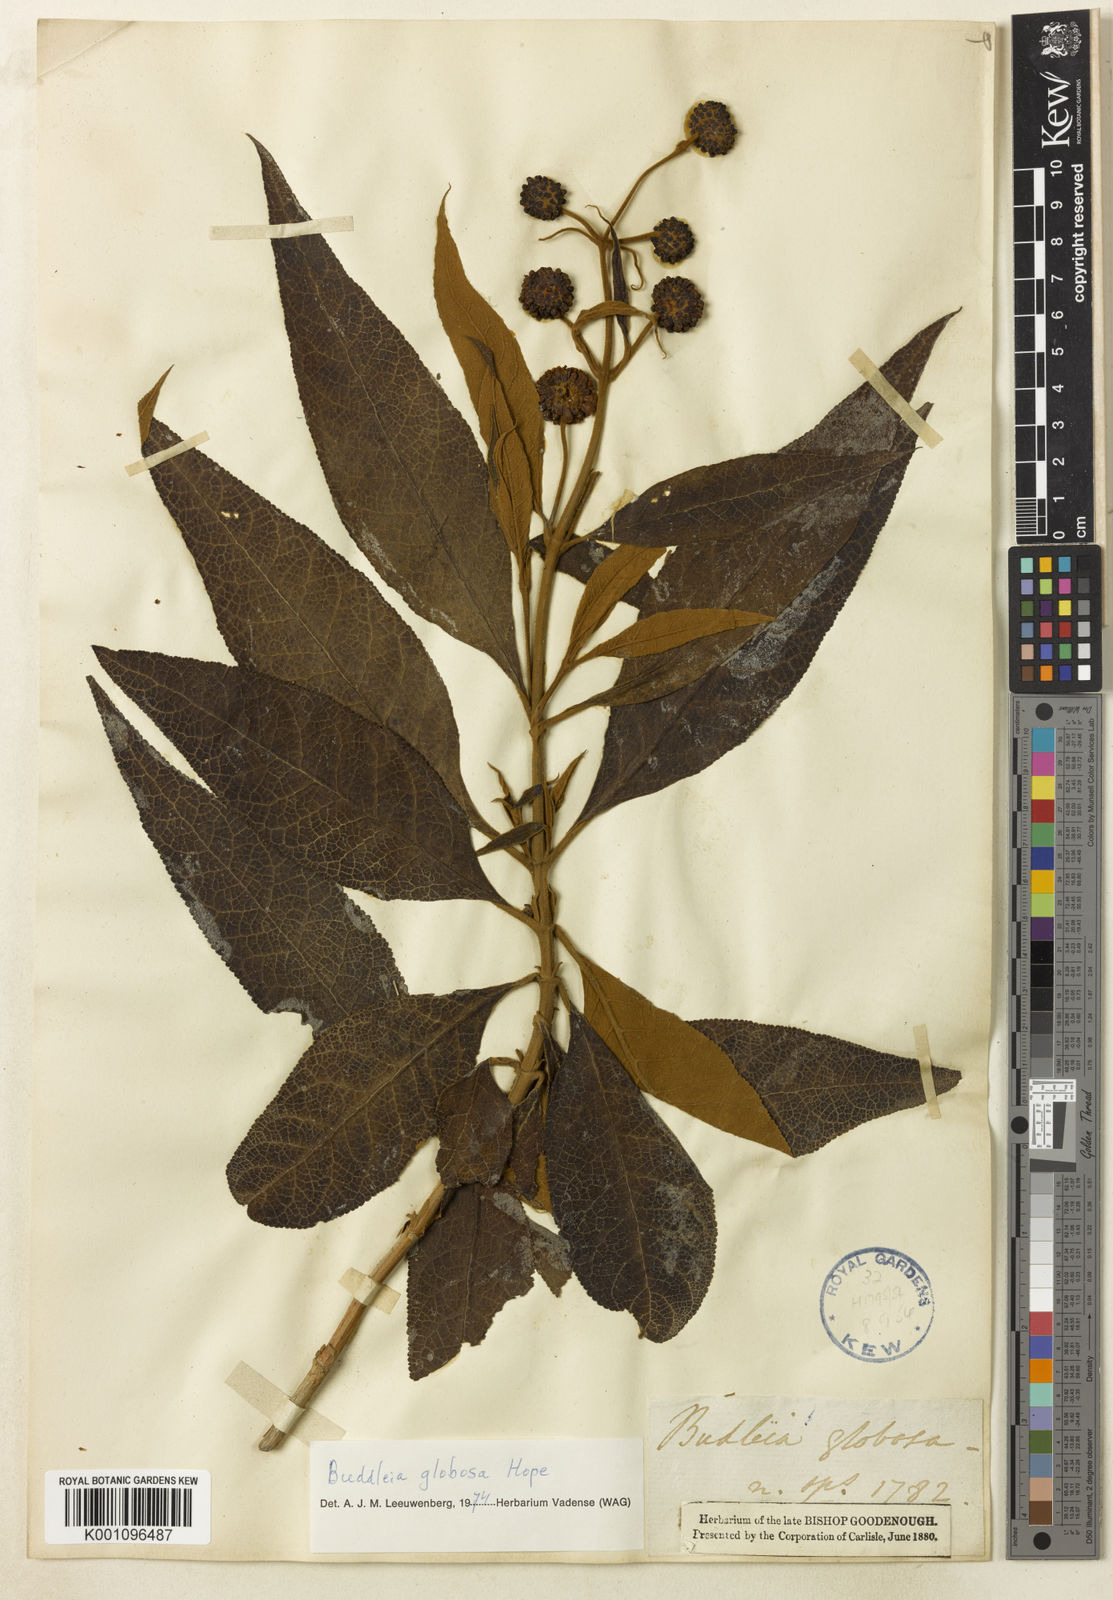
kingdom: Plantae
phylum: Tracheophyta
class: Magnoliopsida
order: Lamiales
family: Scrophulariaceae
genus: Buddleja
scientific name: Buddleja globosa
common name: Orange-ball-tree
